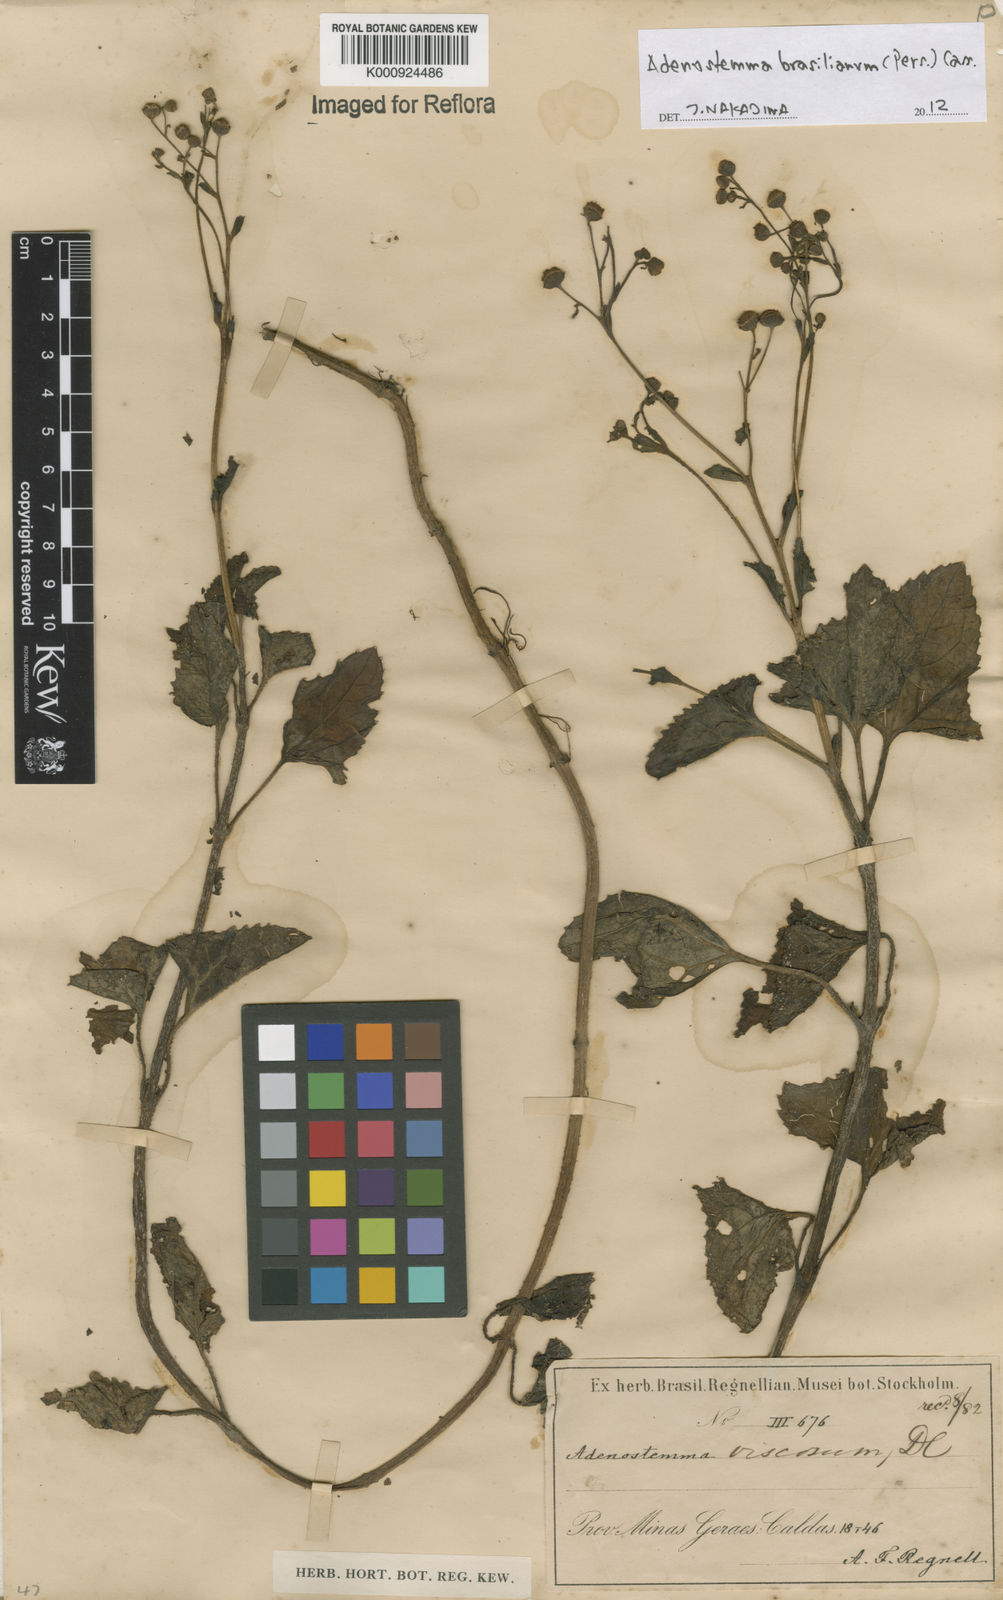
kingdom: Plantae
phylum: Tracheophyta
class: Magnoliopsida
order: Asterales
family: Asteraceae
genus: Adenostemma
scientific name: Adenostemma brasilianum
